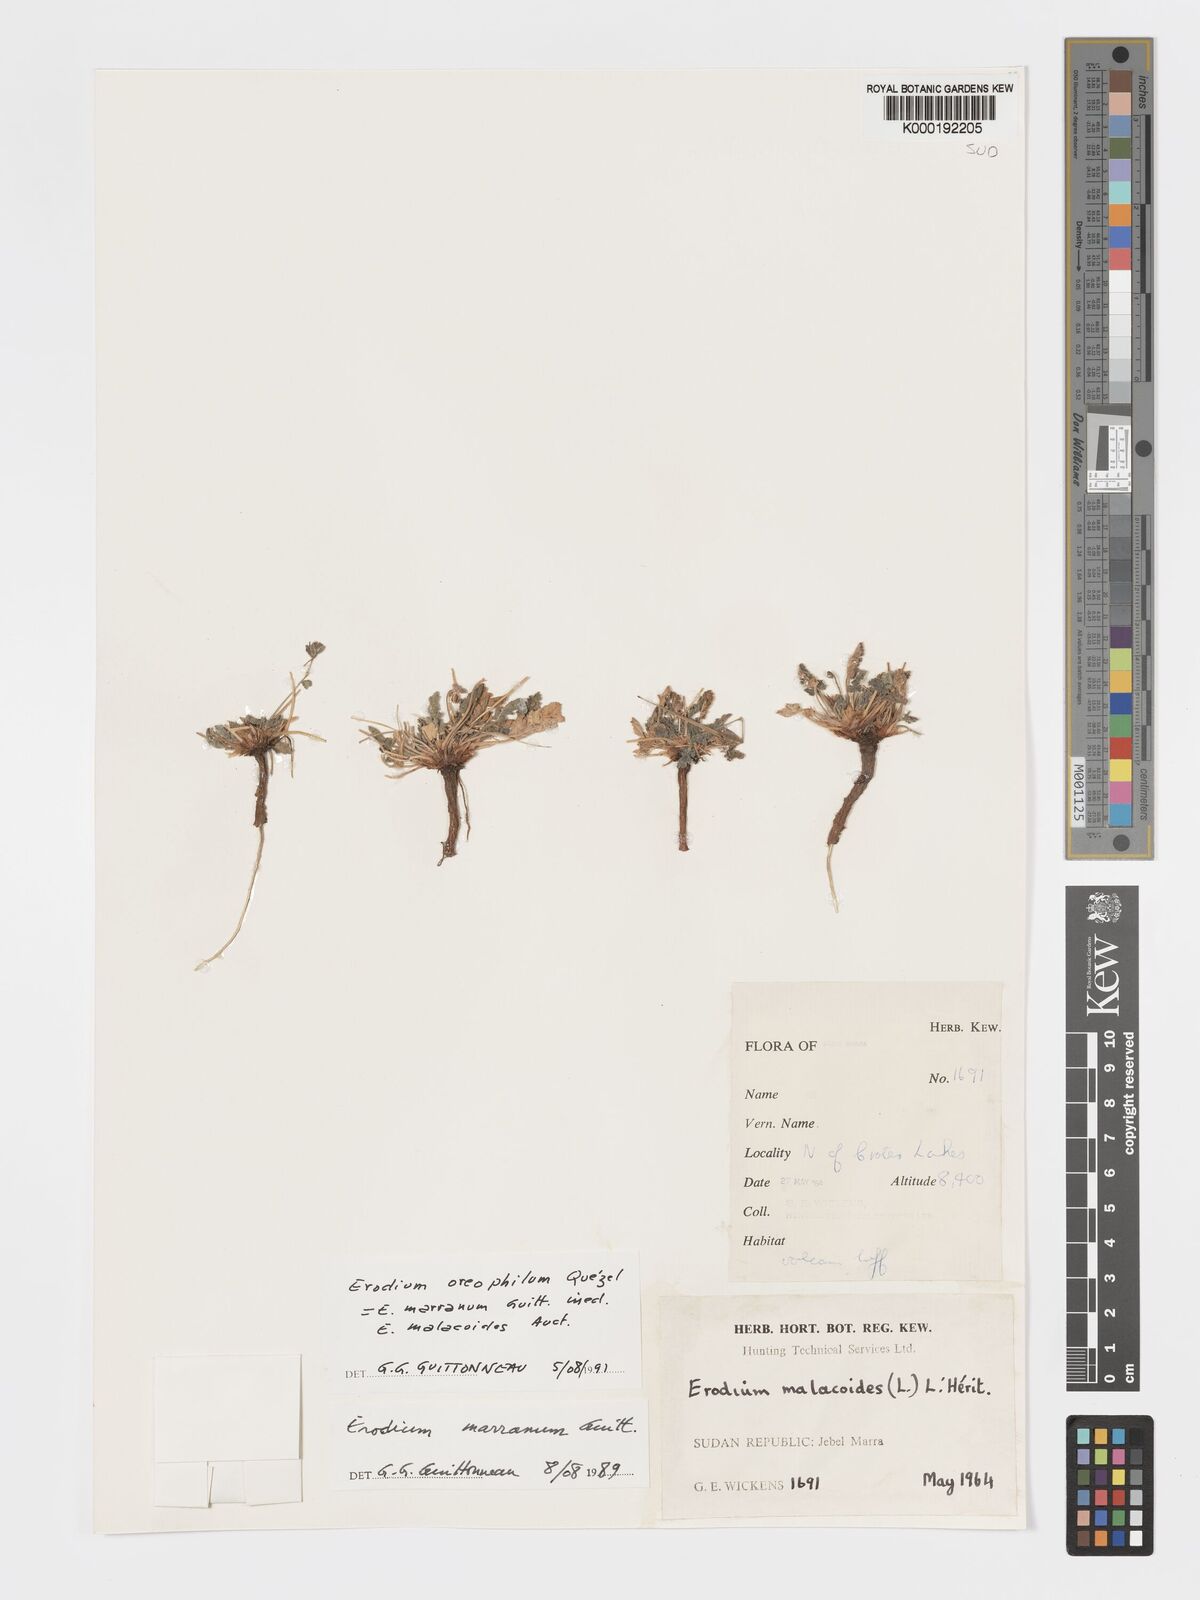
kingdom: Plantae
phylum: Tracheophyta
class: Magnoliopsida
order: Geraniales
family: Geraniaceae
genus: Erodium
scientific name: Erodium oreophilum
